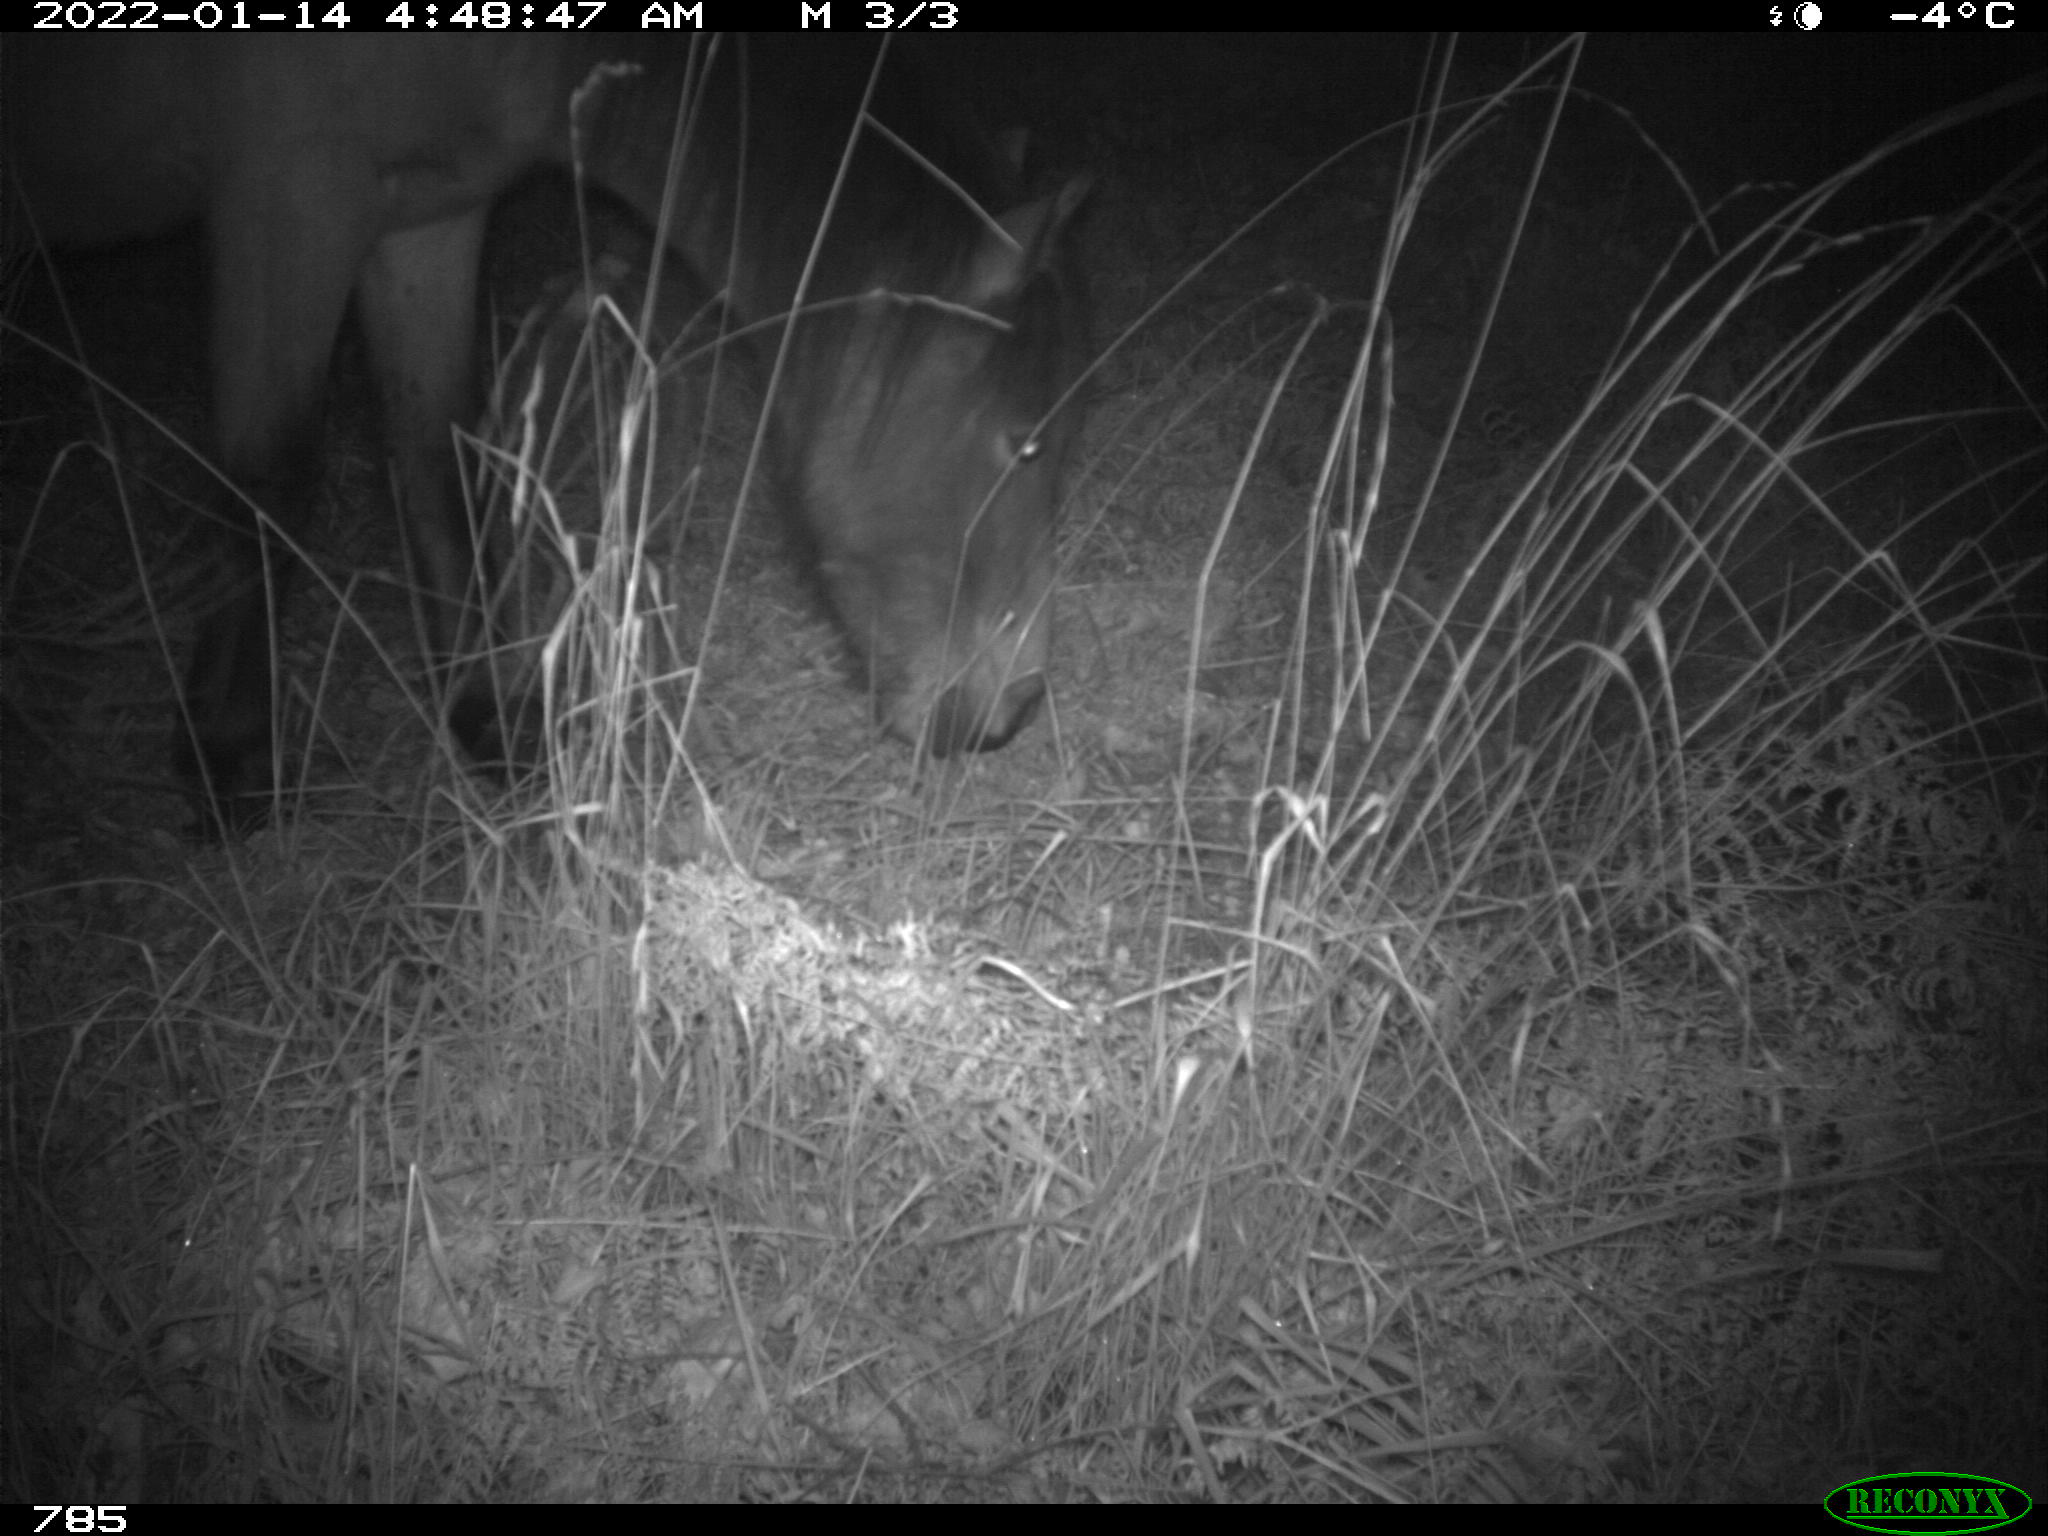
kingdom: Animalia
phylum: Chordata
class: Mammalia
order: Perissodactyla
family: Equidae
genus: Equus
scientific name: Equus caballus
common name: Horse
